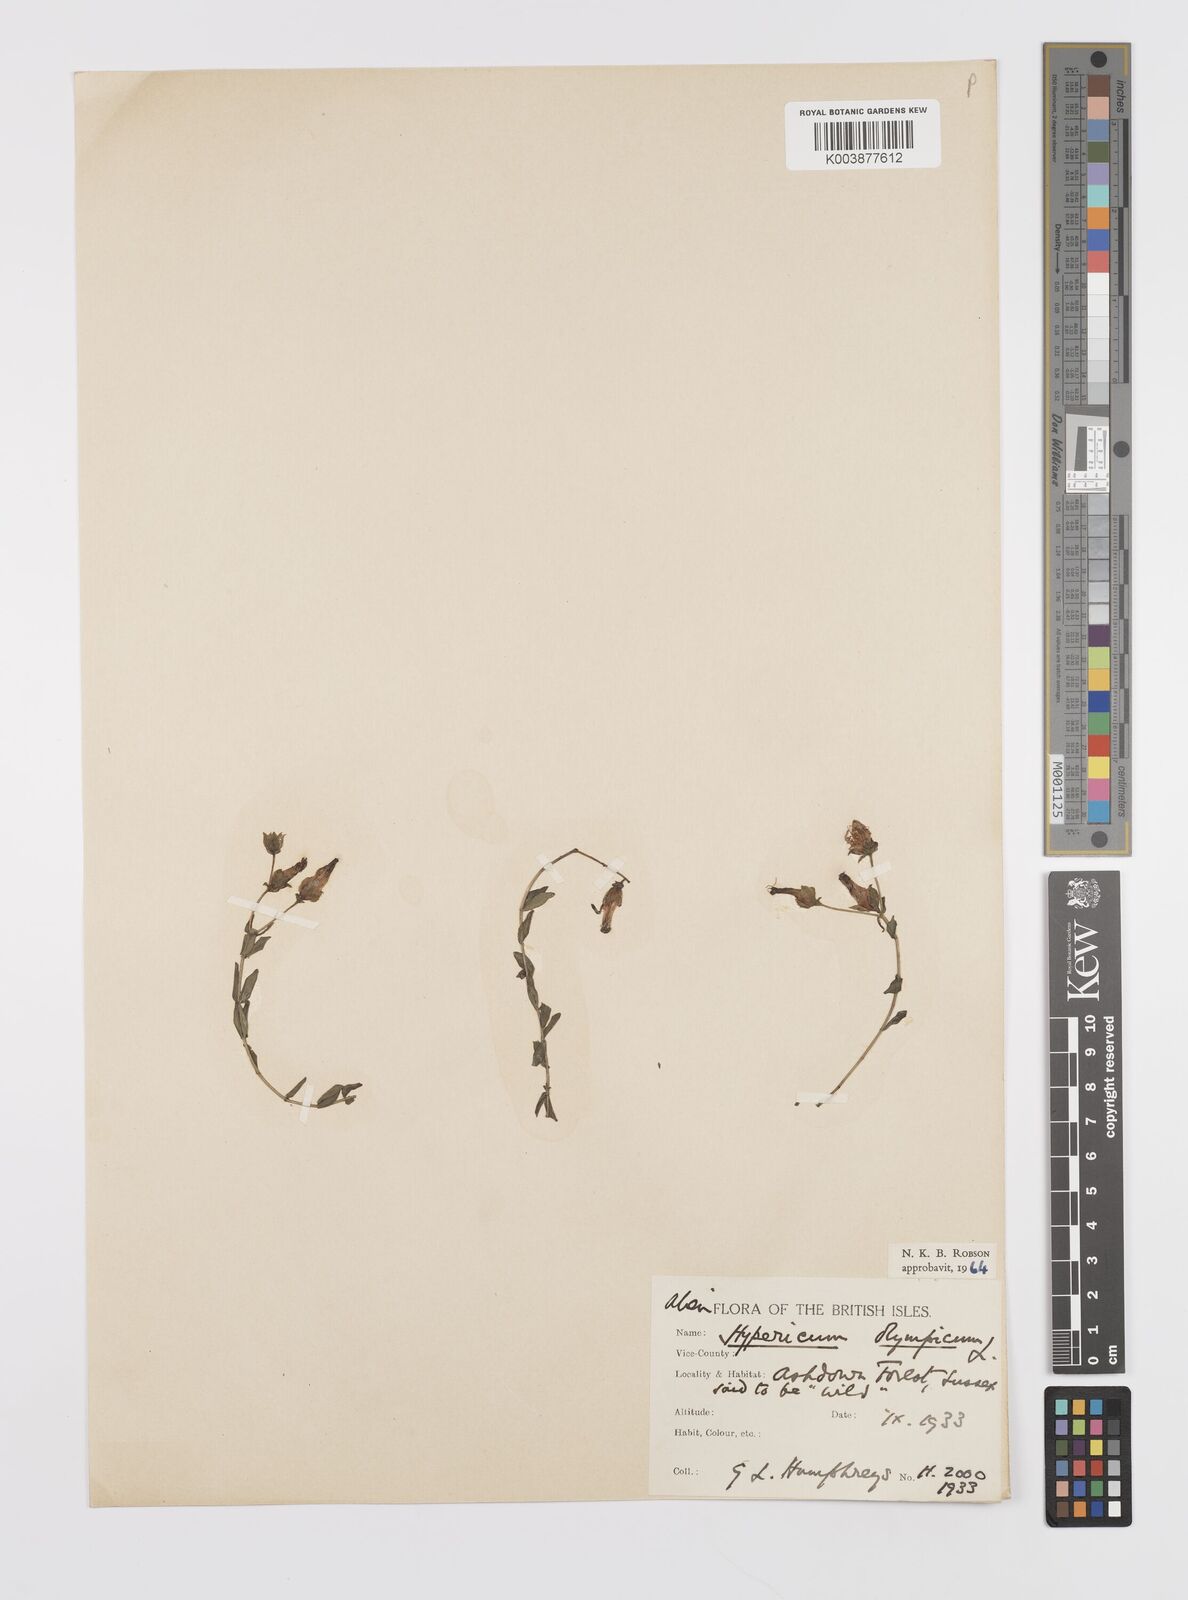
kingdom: Plantae
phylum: Tracheophyta
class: Magnoliopsida
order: Malpighiales
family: Hypericaceae
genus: Hypericum
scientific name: Hypericum olympicum
